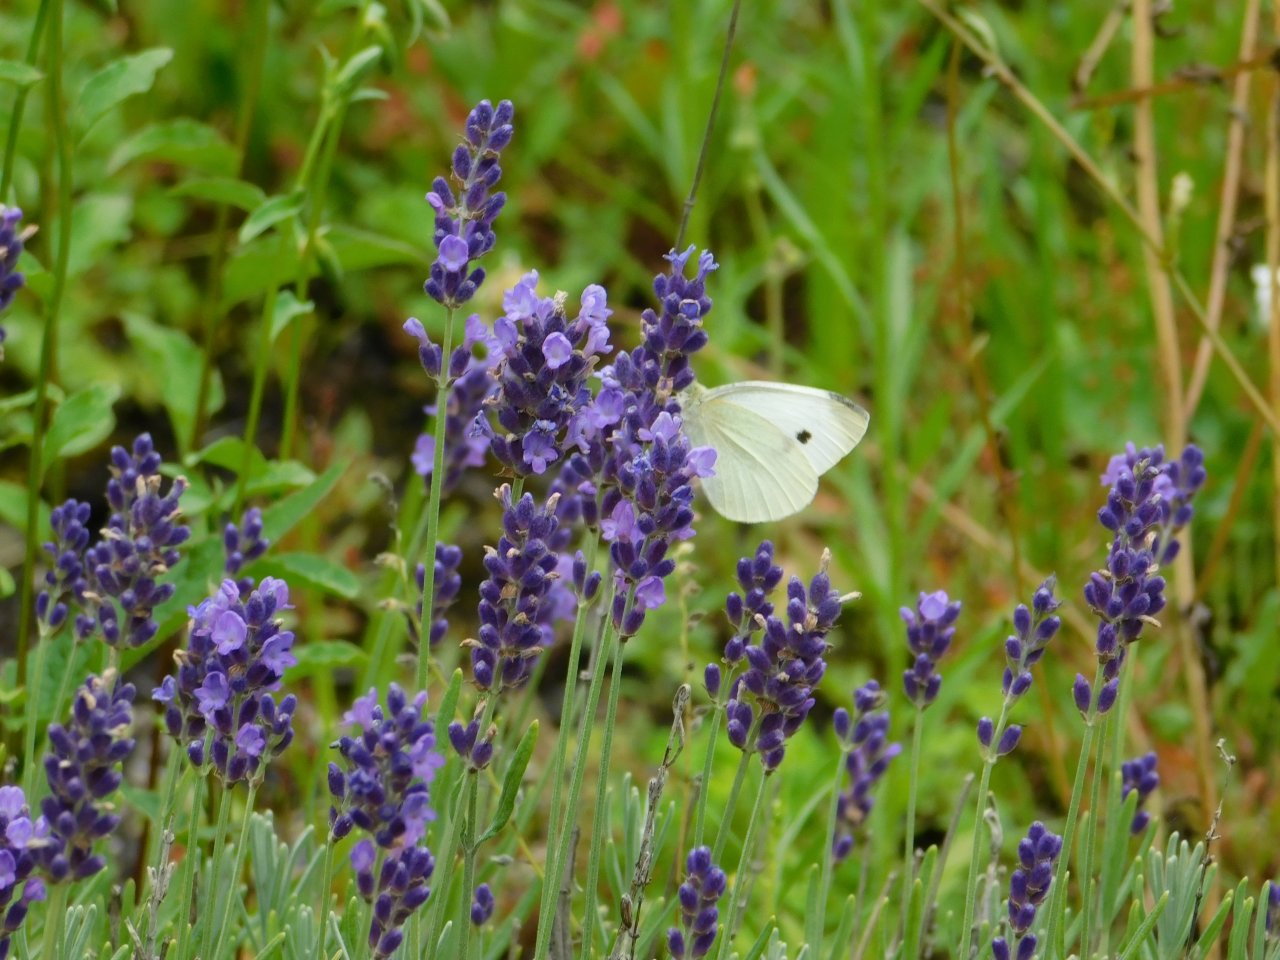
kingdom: Animalia
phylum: Arthropoda
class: Insecta
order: Lepidoptera
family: Pieridae
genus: Pieris
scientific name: Pieris rapae
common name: Cabbage White
